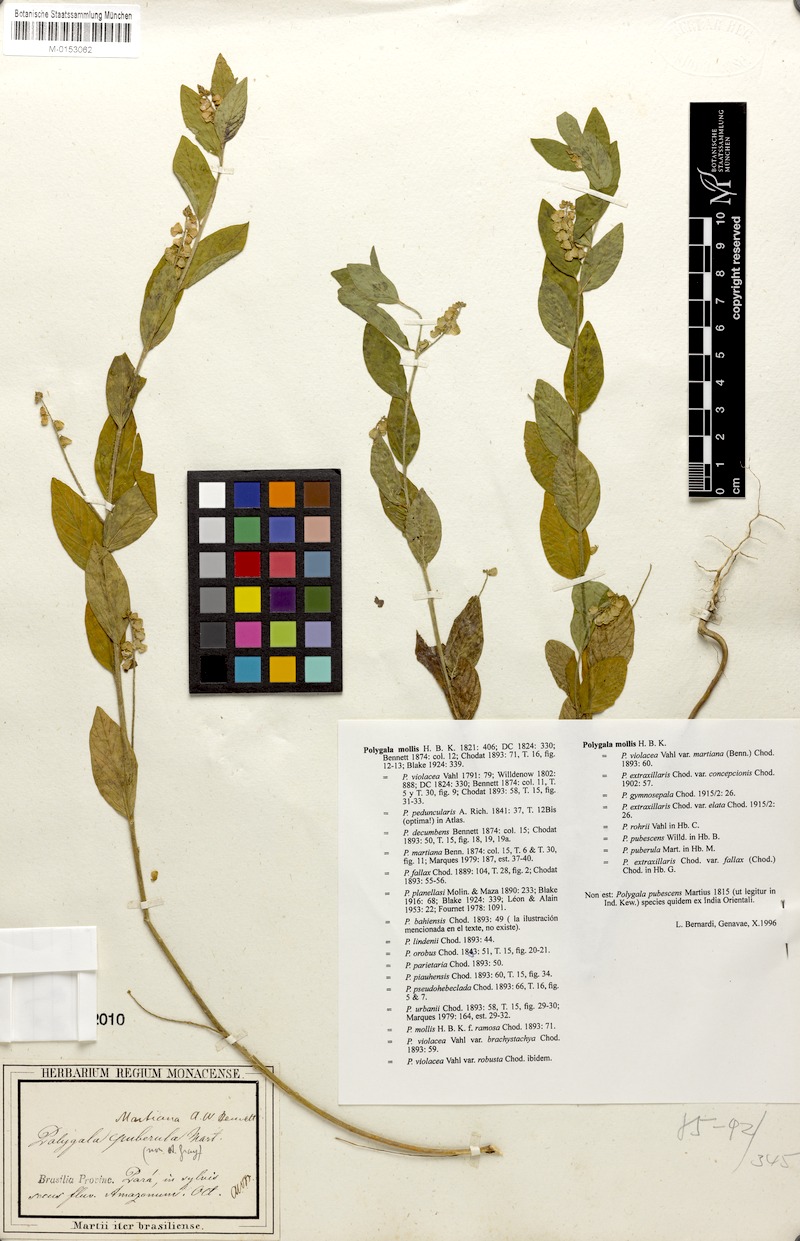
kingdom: Plantae
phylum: Tracheophyta
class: Magnoliopsida
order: Fabales
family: Polygalaceae
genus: Asemeia
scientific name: Asemeia martiana
